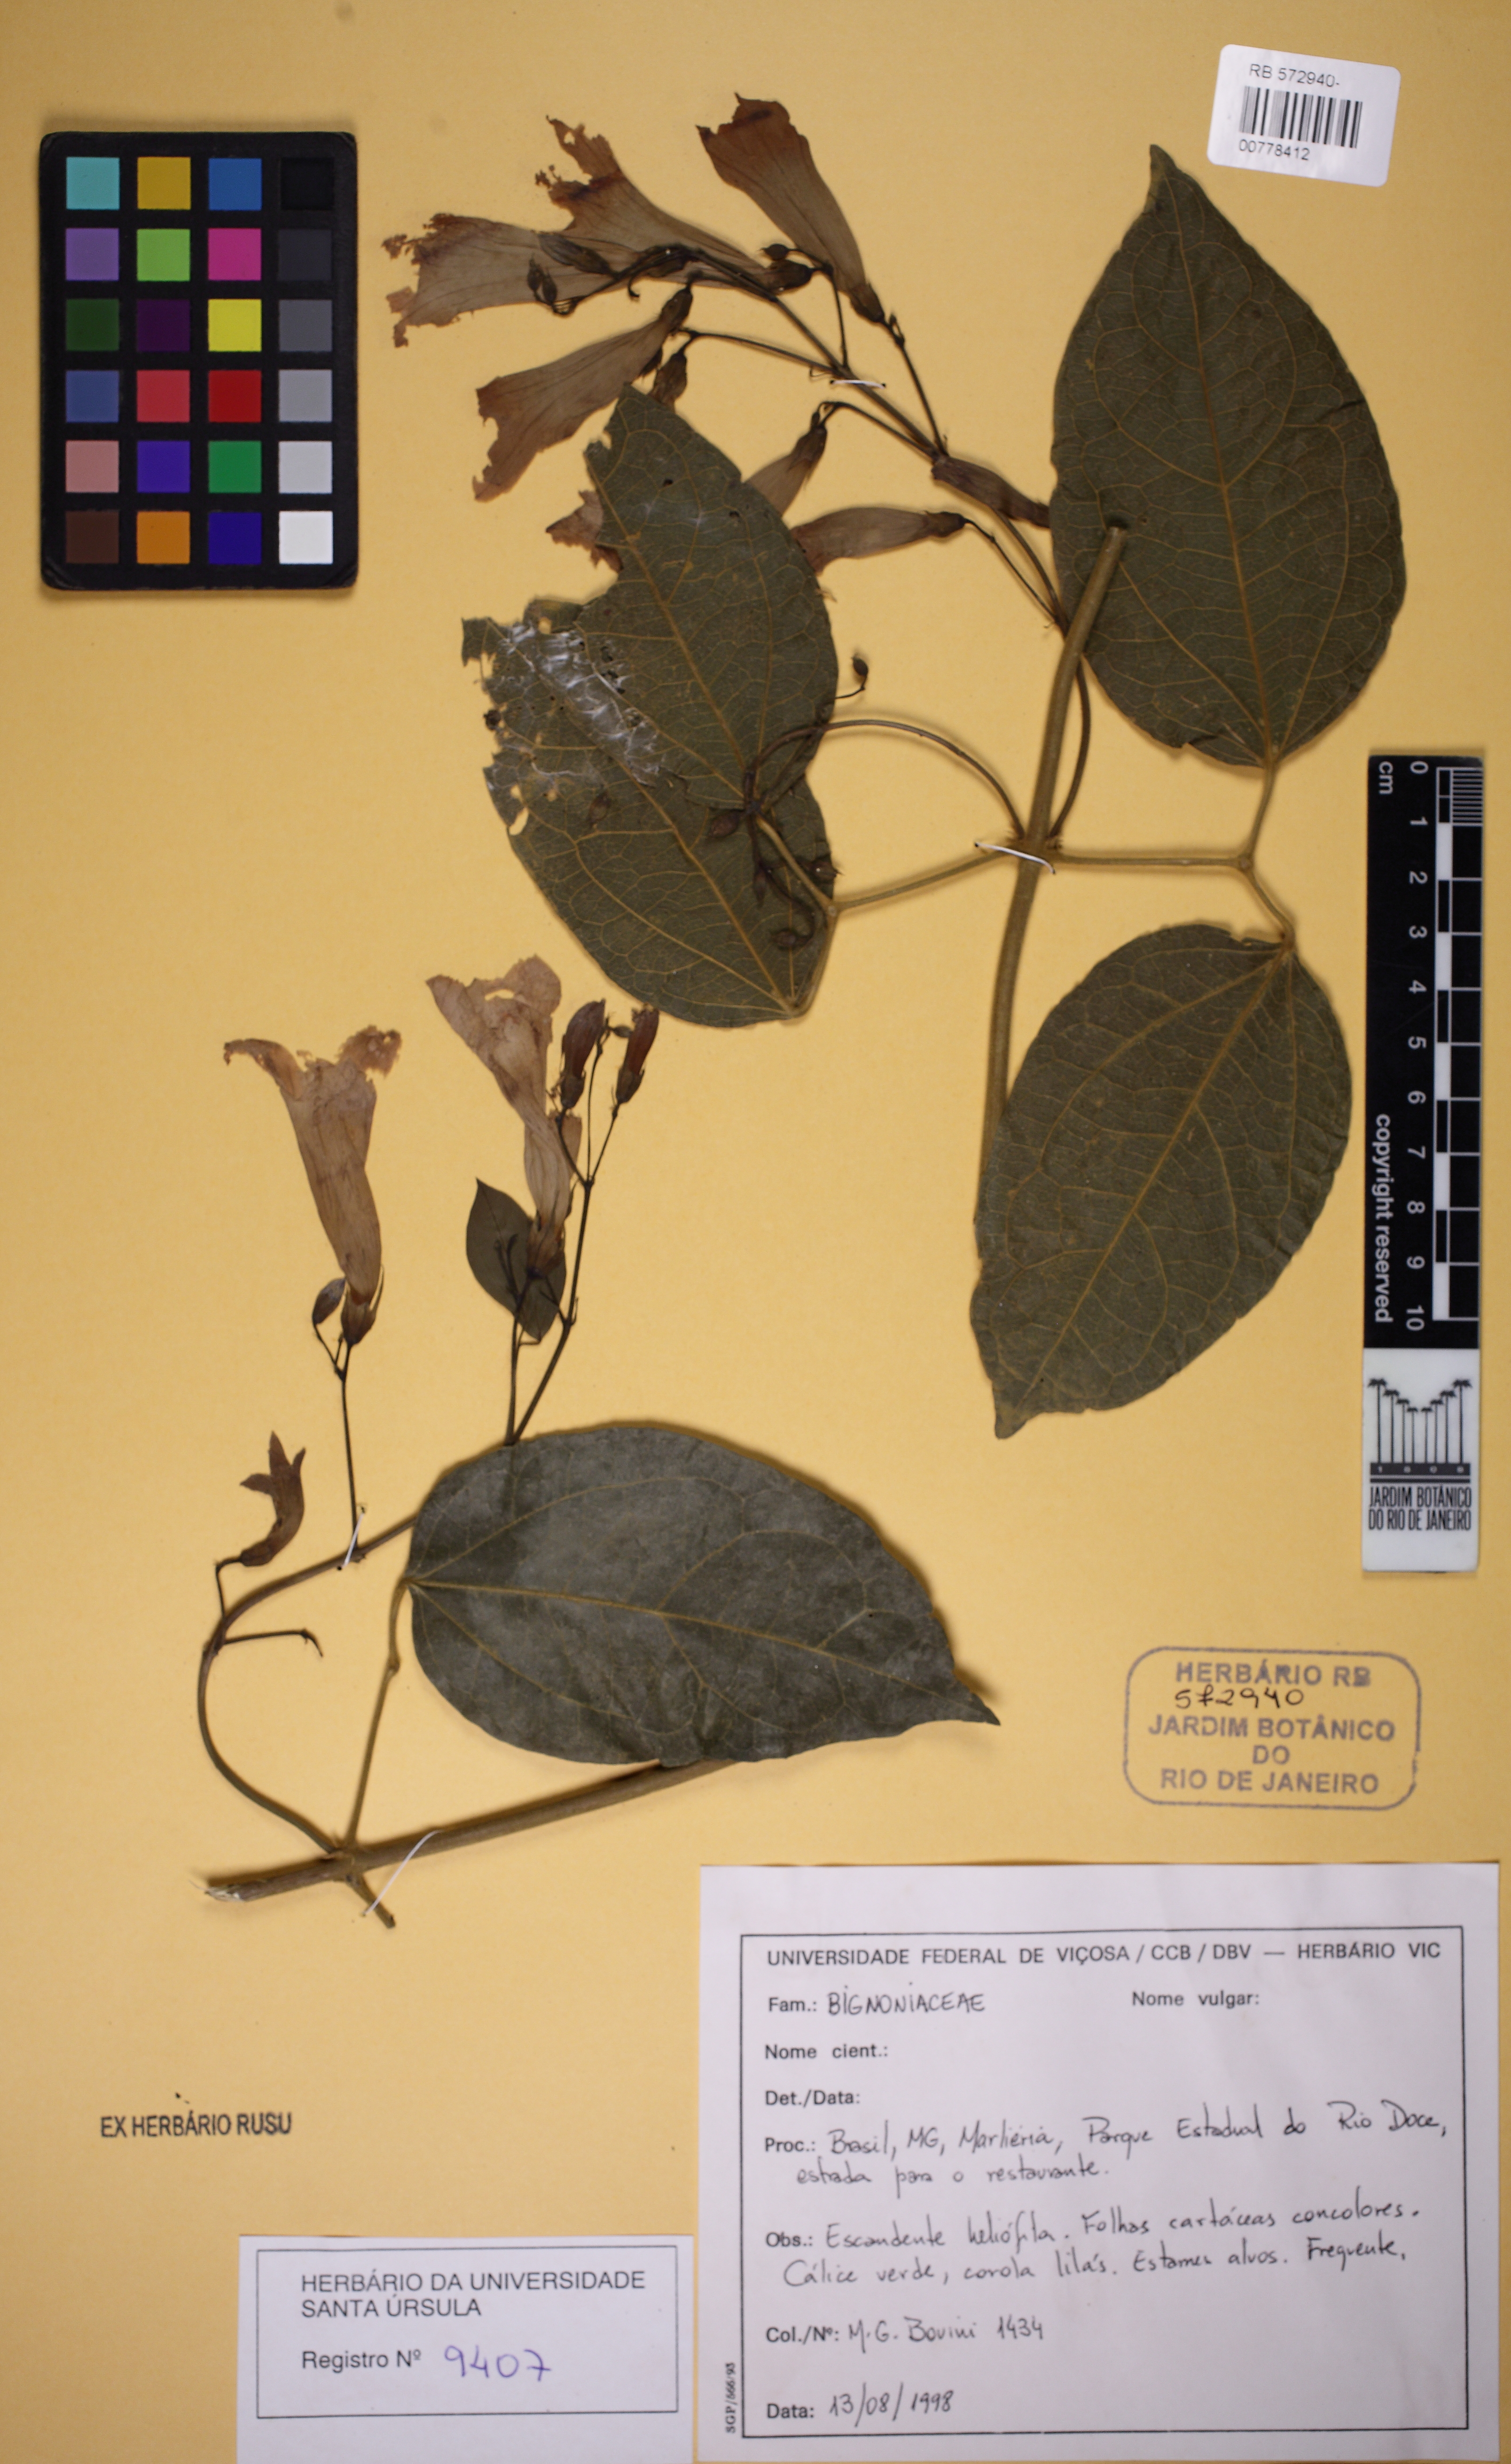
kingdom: Plantae
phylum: Tracheophyta
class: Magnoliopsida
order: Lamiales
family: Bignoniaceae
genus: Mansoa
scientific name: Mansoa minensis
